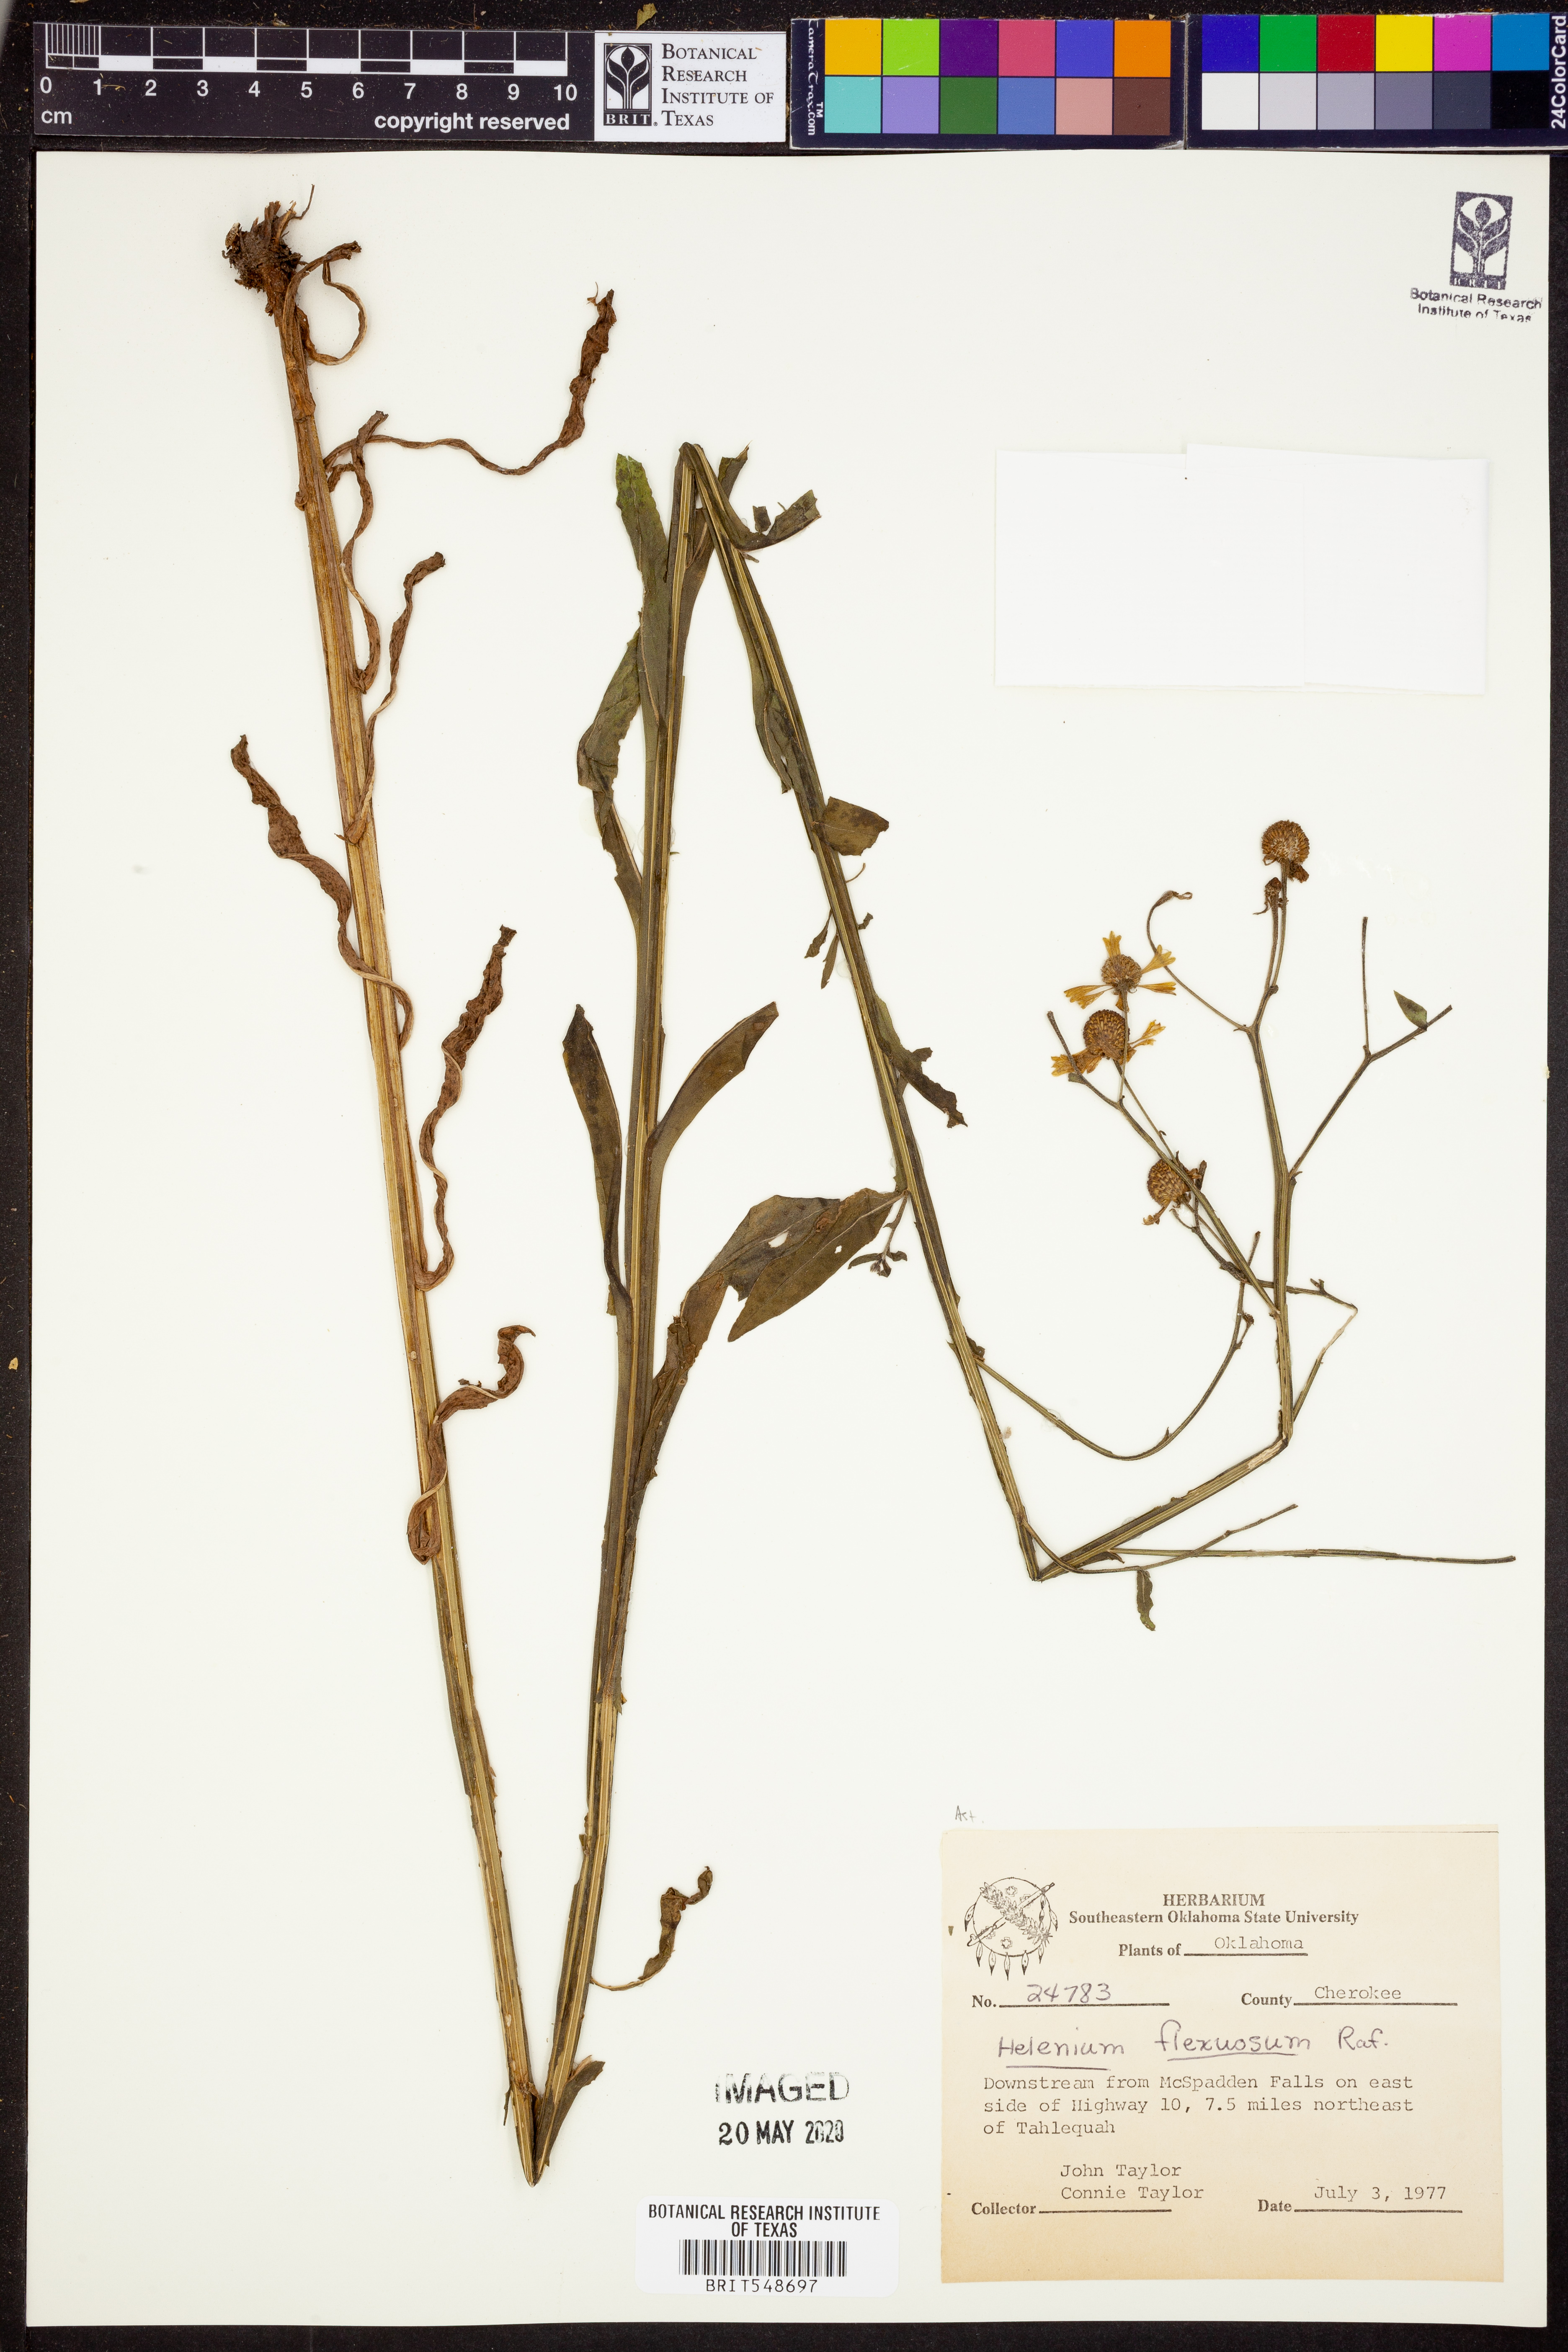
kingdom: Plantae
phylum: Tracheophyta
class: Magnoliopsida
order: Asterales
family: Asteraceae
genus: Helenium
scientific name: Helenium flexuosum
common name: Naked-flowered sneezeweed
